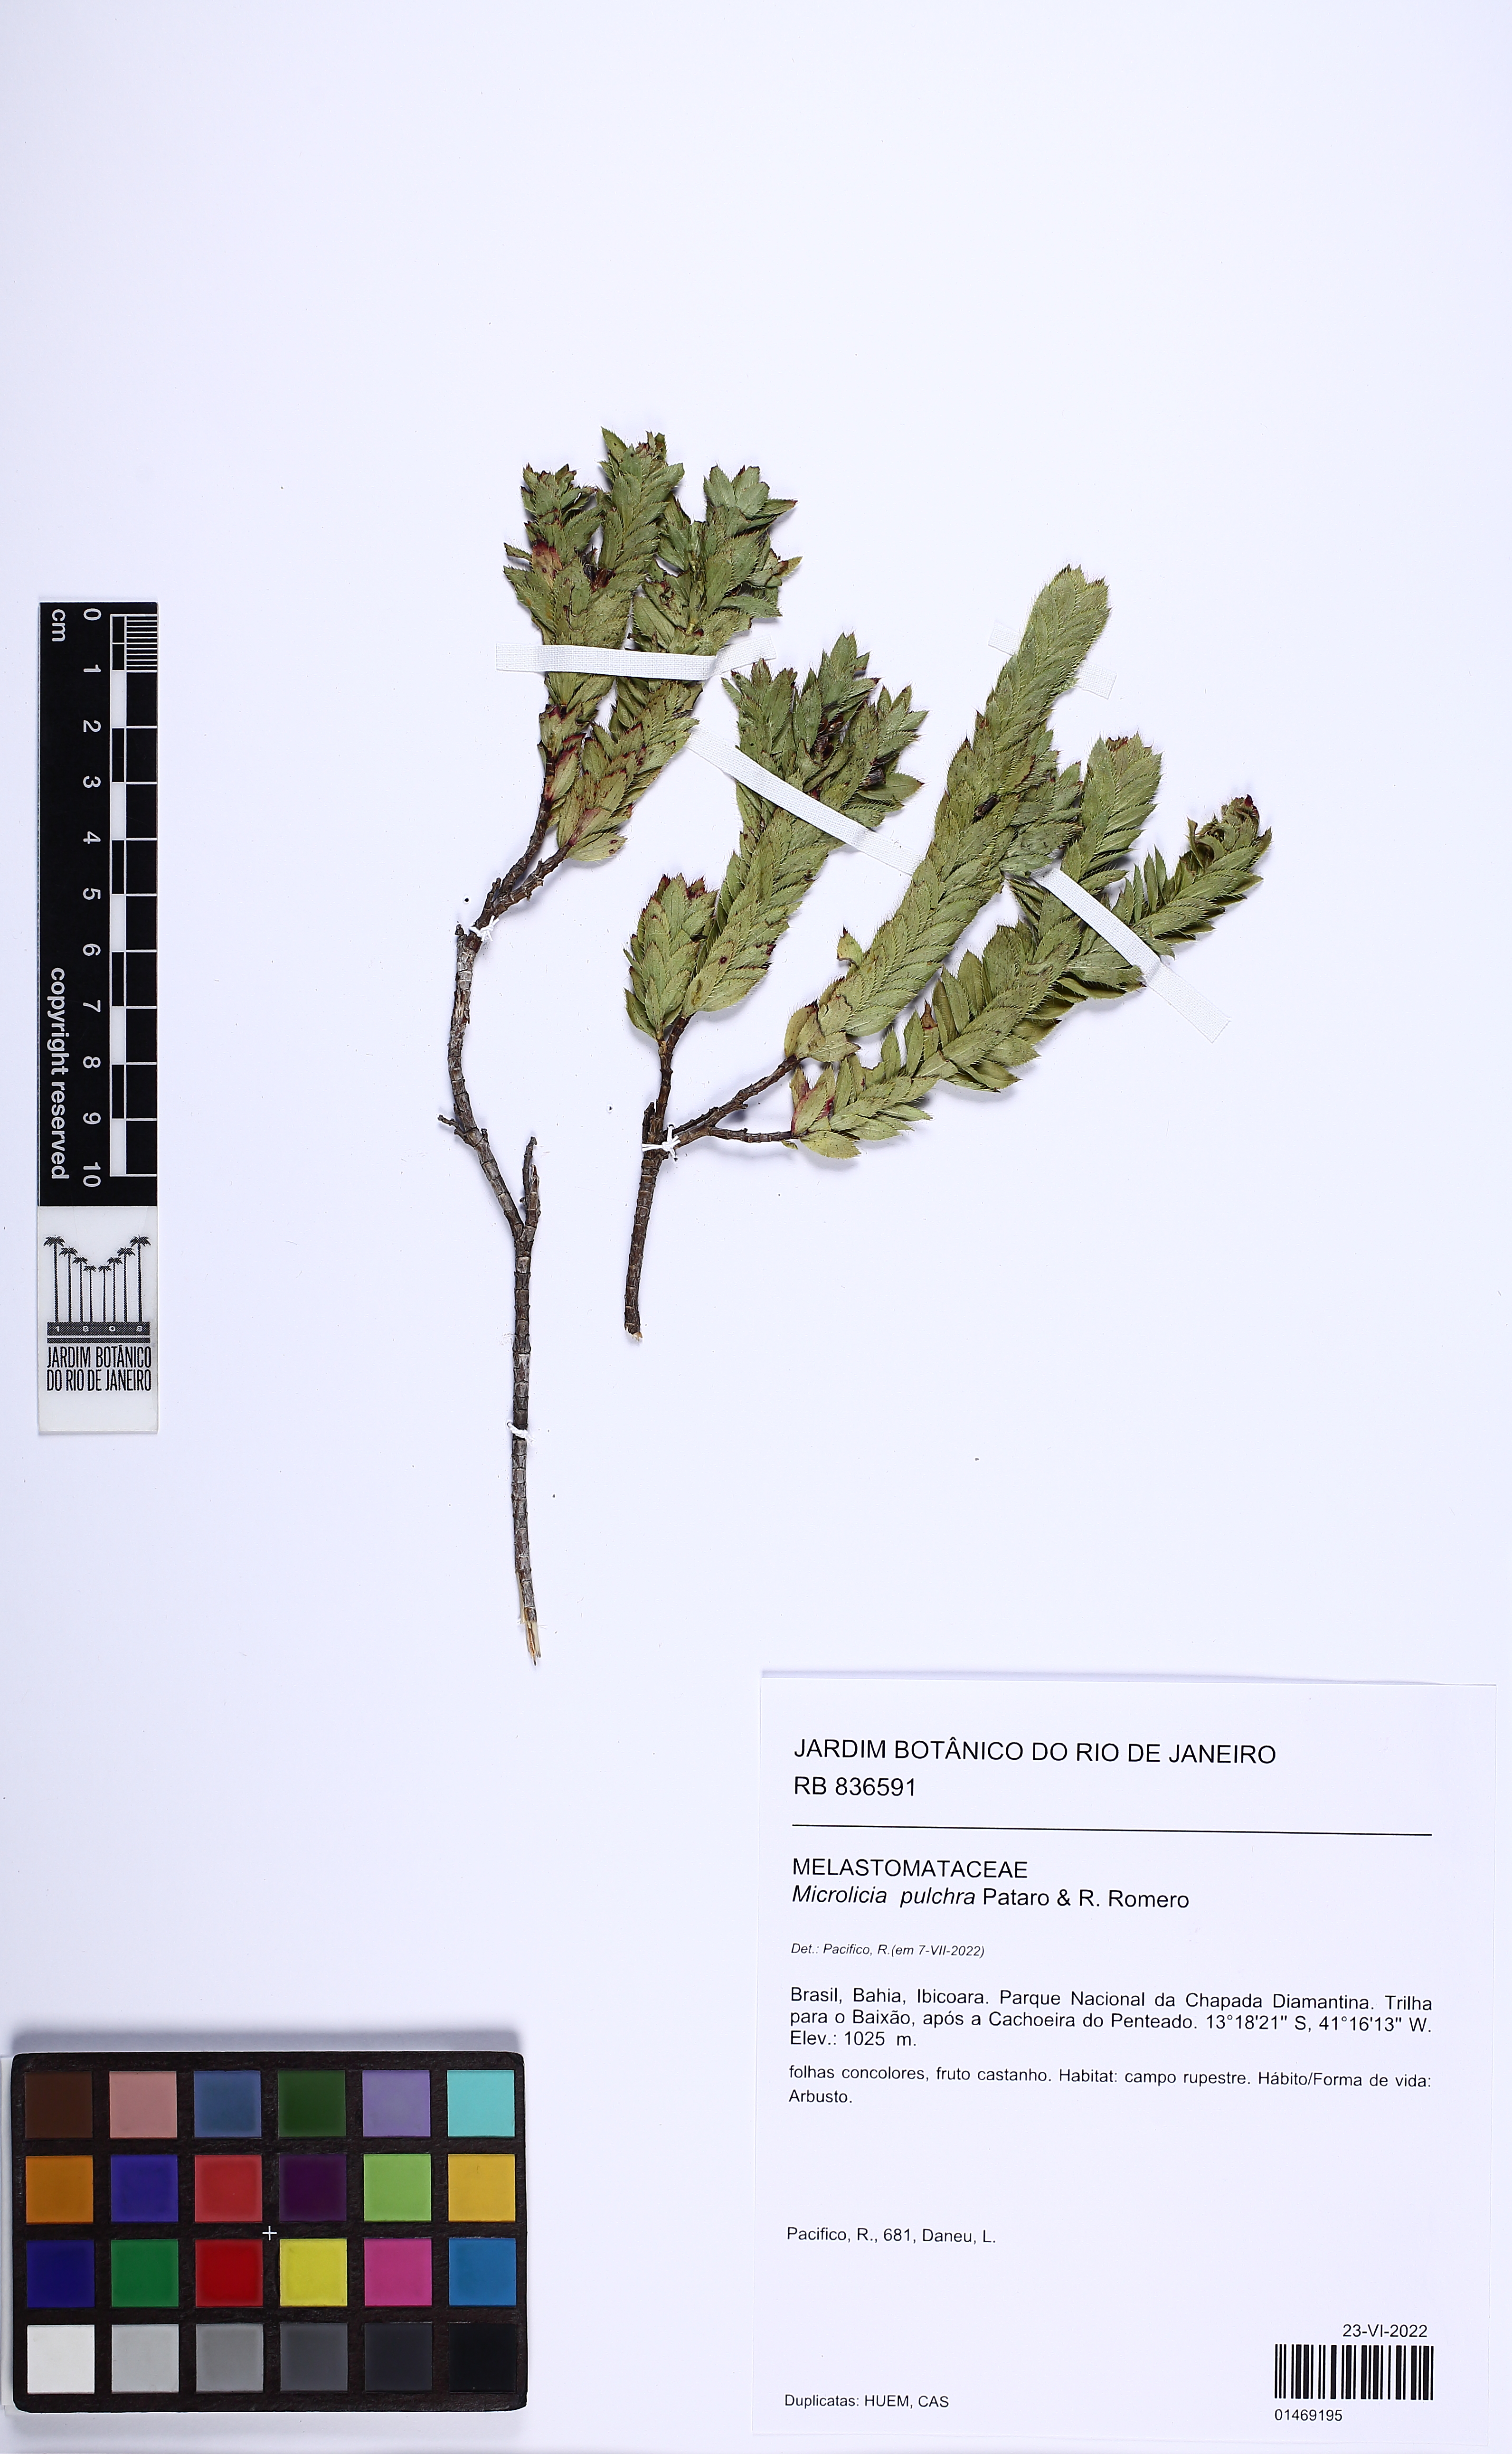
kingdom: Plantae
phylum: Tracheophyta
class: Magnoliopsida
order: Myrtales
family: Melastomataceae
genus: Microlicia
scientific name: Microlicia pulchra
